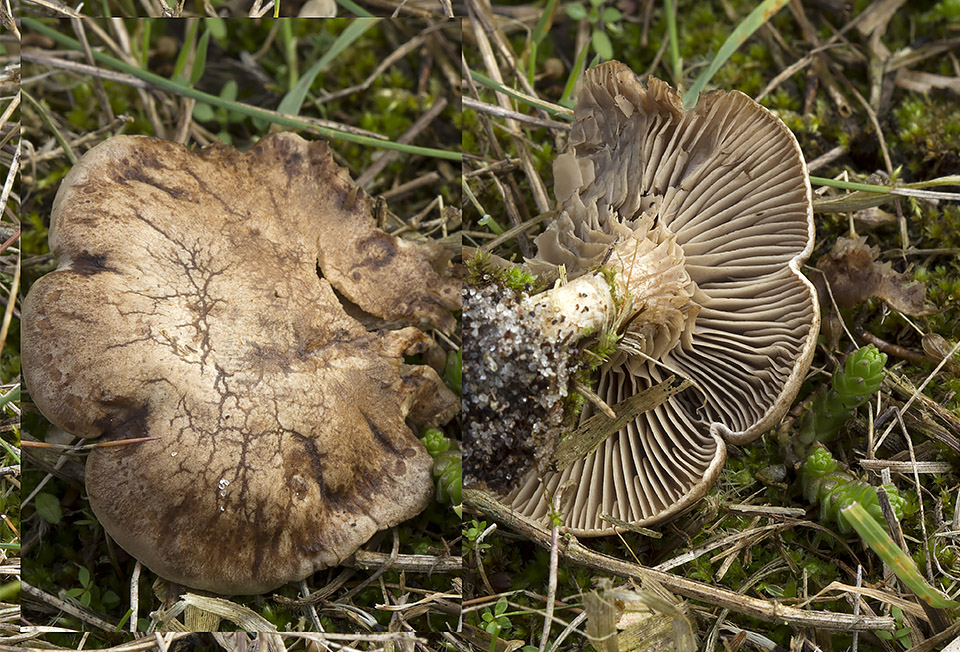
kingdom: Fungi
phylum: Basidiomycota
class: Agaricomycetes
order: Agaricales
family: Tricholomataceae
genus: Lulesia
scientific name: Lulesia
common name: sortnende troldhat
